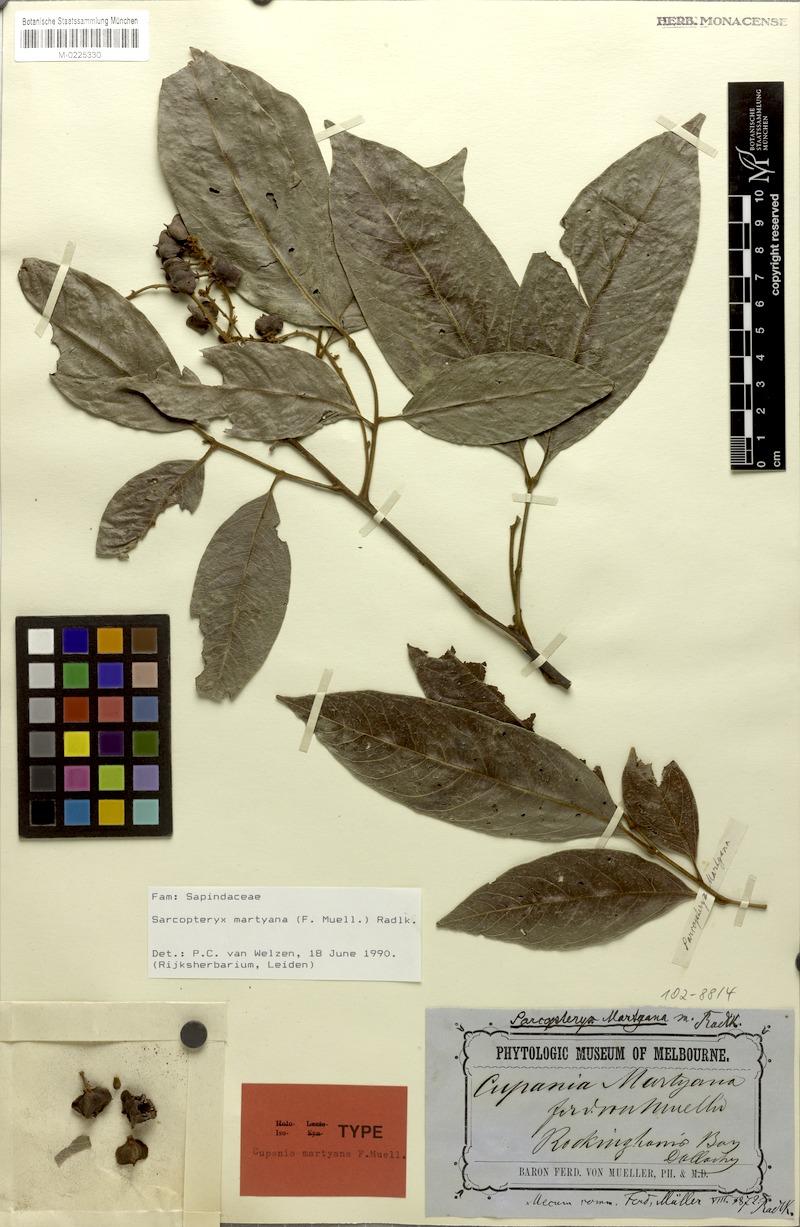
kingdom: Plantae
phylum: Tracheophyta
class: Magnoliopsida
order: Sapindales
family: Sapindaceae
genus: Sarcopteryx
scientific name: Sarcopteryx martyana
